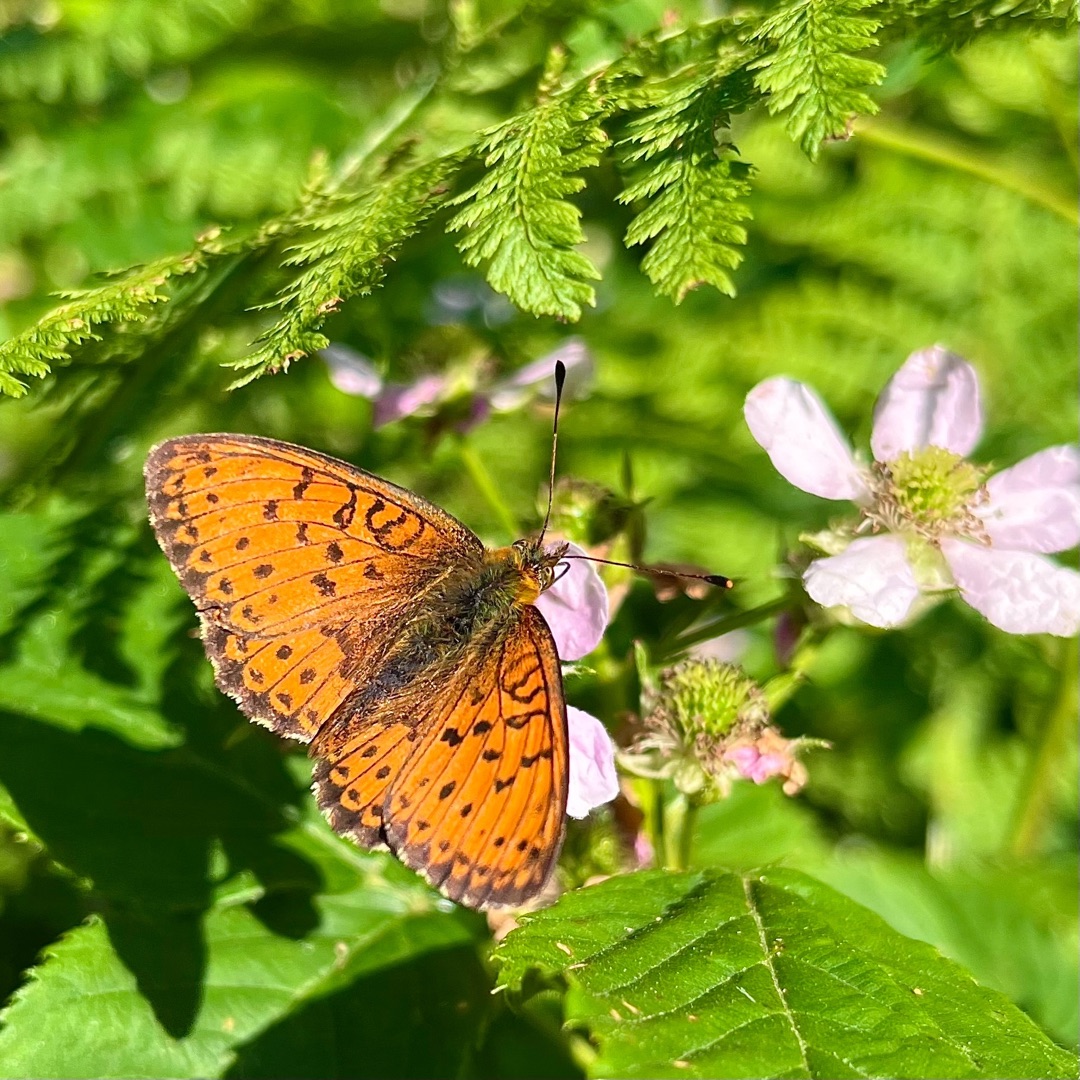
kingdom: Animalia
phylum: Arthropoda
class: Insecta
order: Lepidoptera
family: Nymphalidae
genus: Brenthis
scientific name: Brenthis ino
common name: Engperlemorsommerfugl
